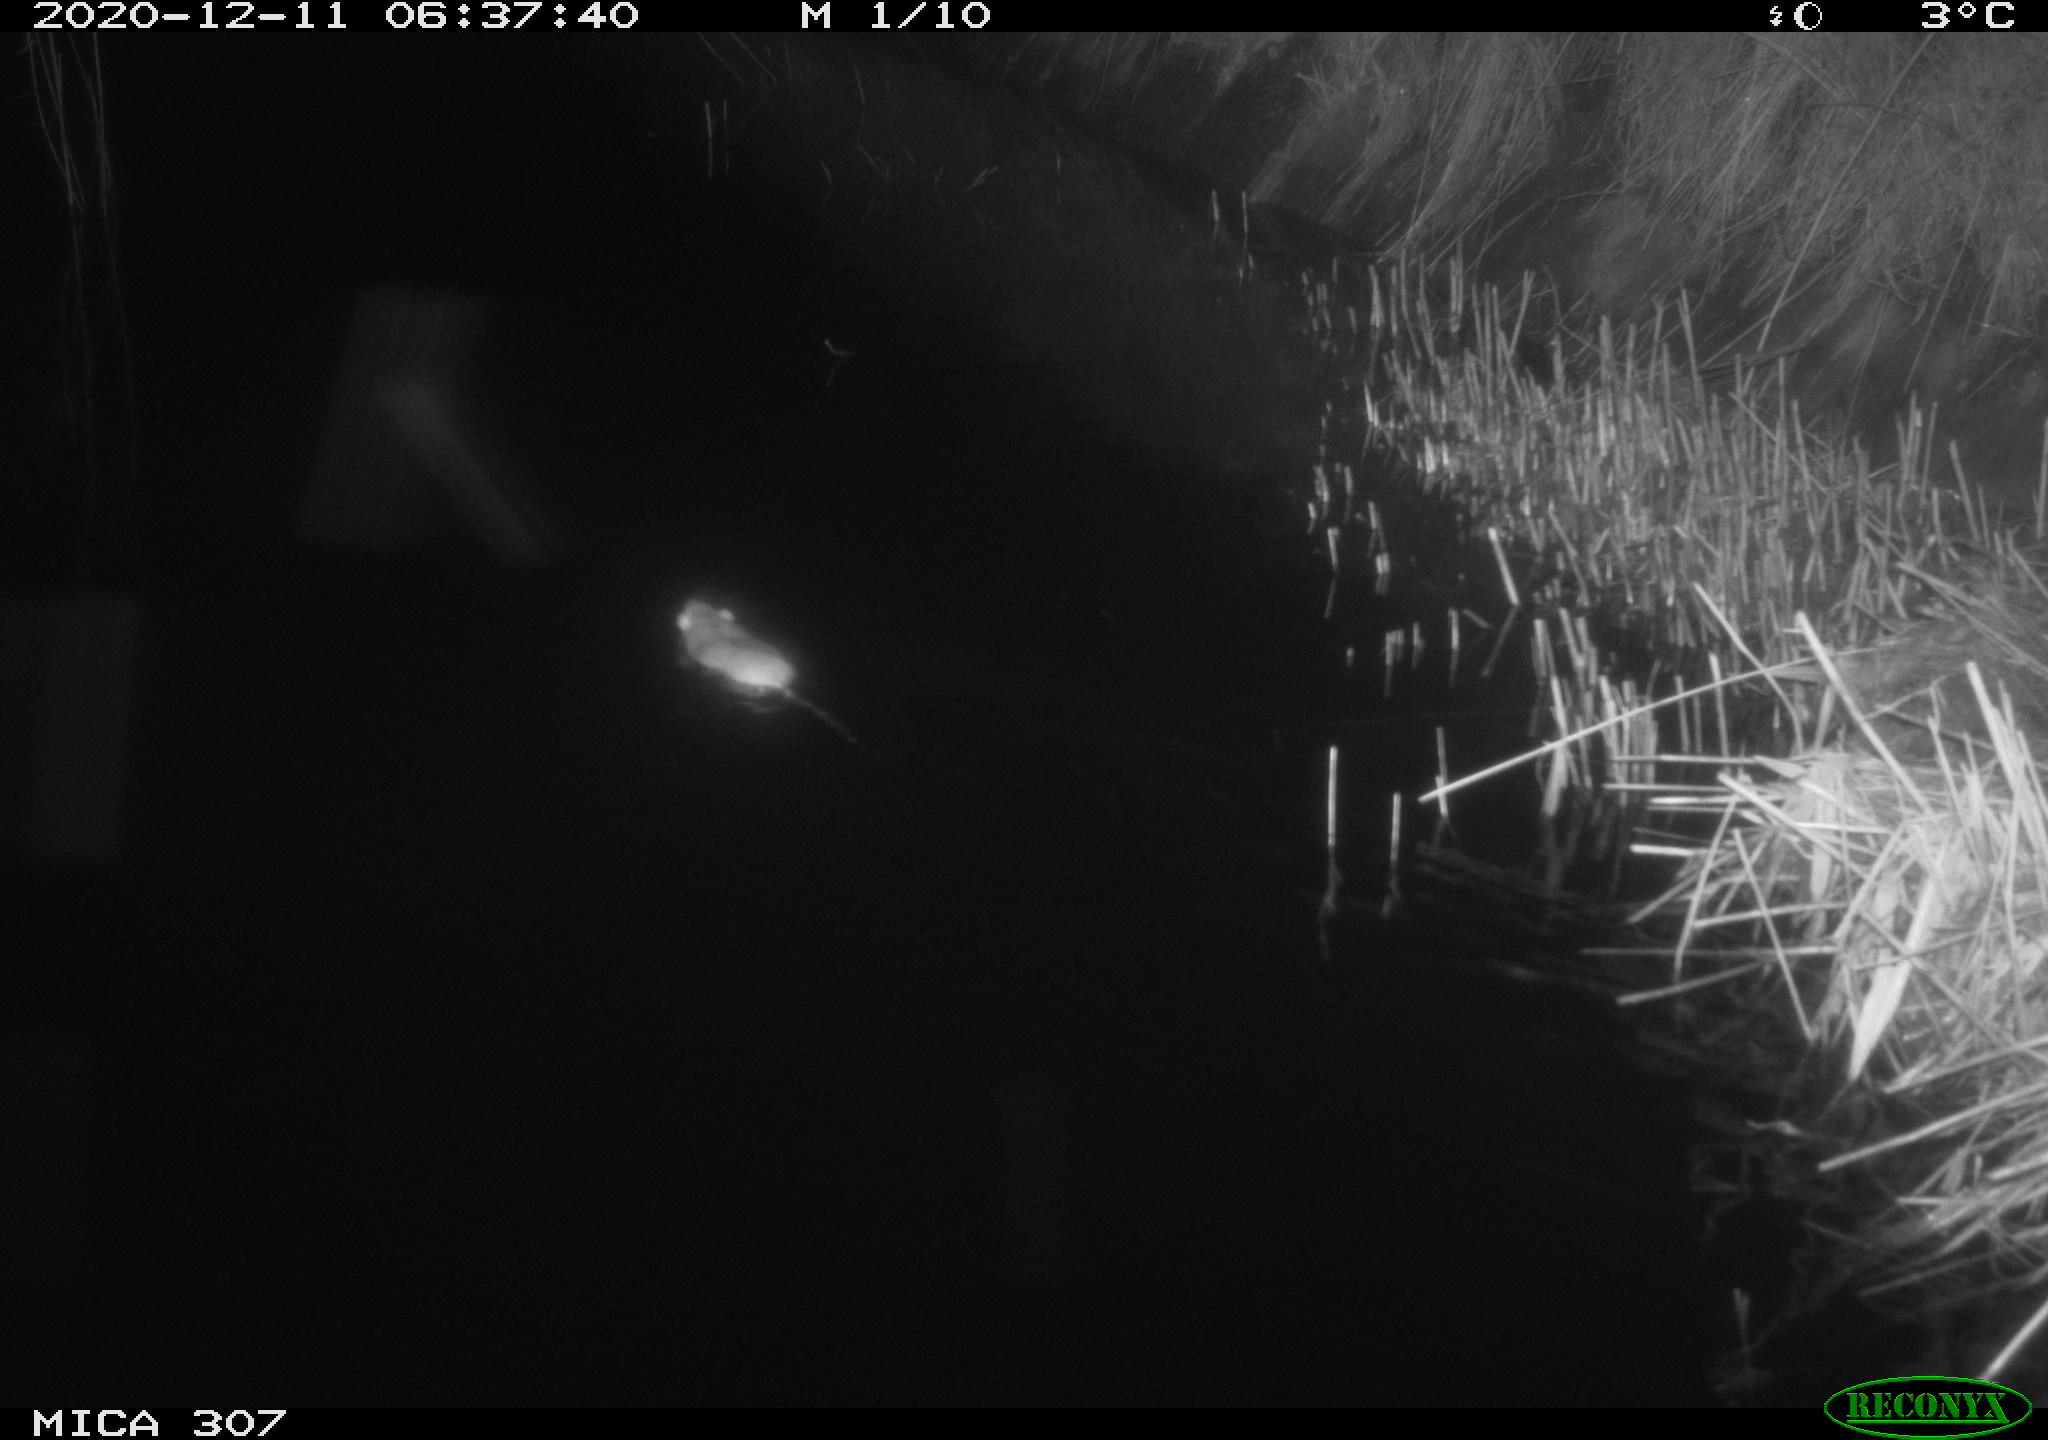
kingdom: Animalia
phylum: Chordata
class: Mammalia
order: Rodentia
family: Muridae
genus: Rattus
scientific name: Rattus norvegicus
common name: Brown rat
